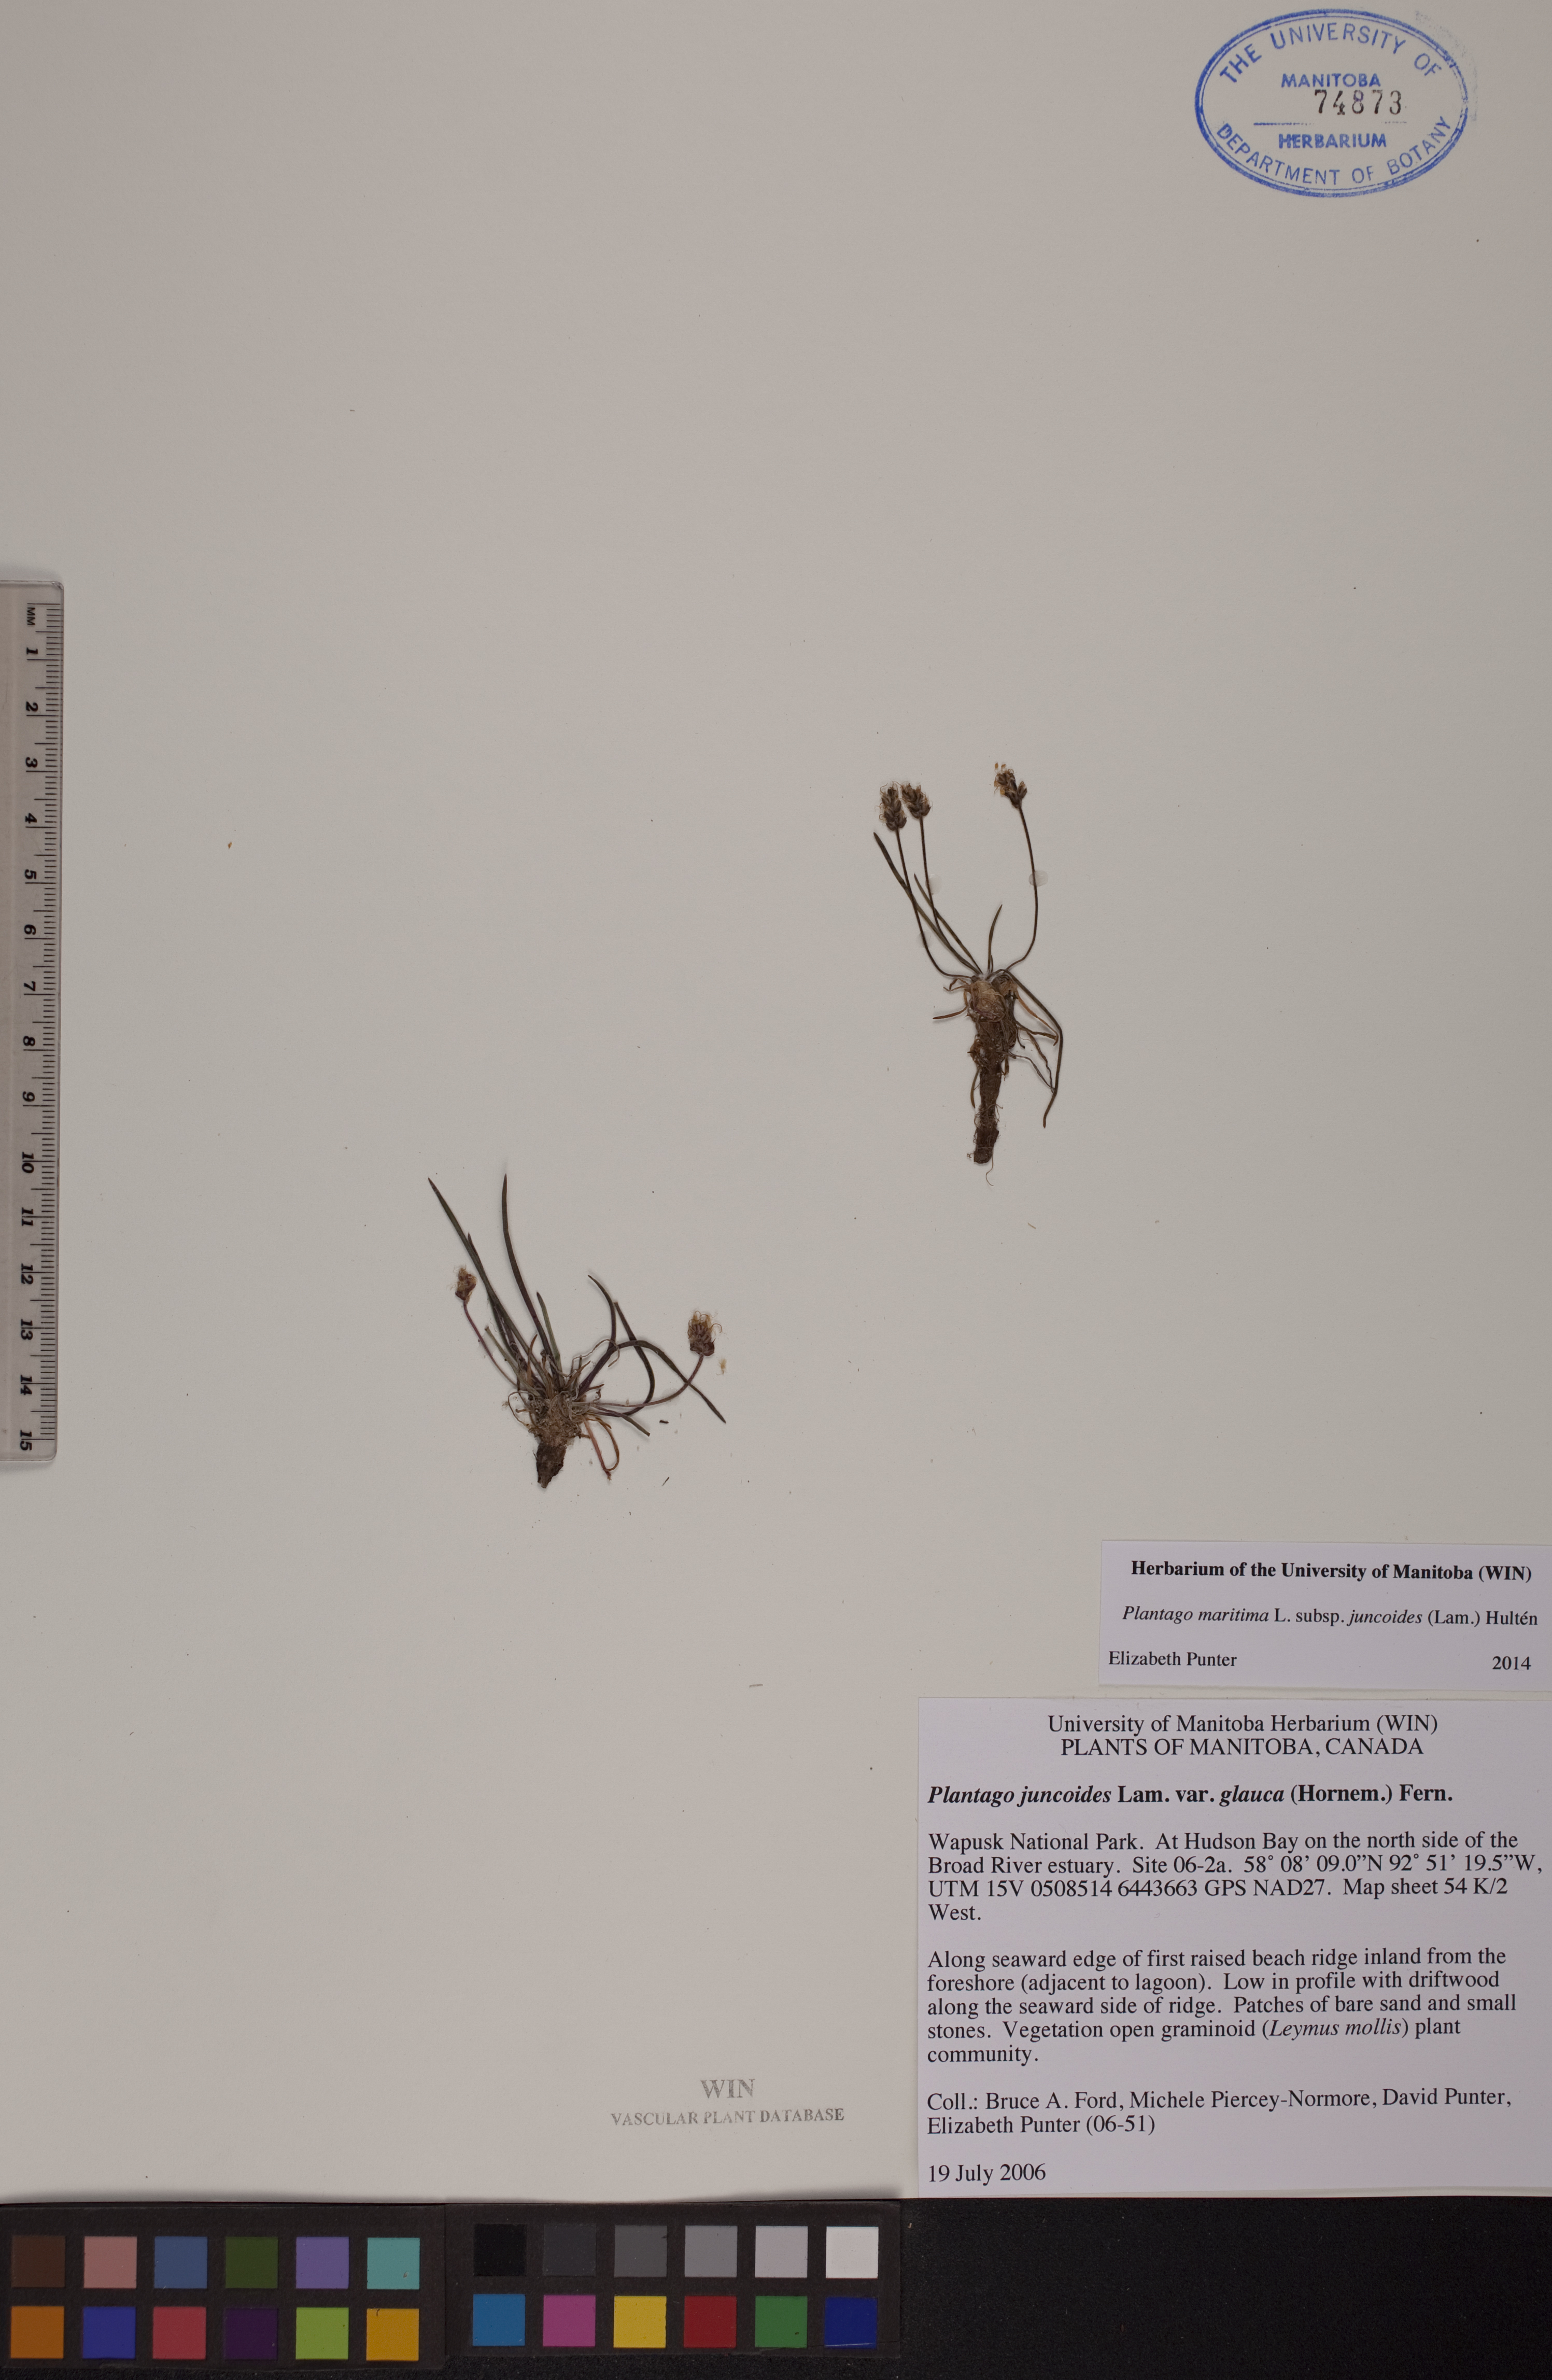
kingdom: Plantae
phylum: Tracheophyta
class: Magnoliopsida
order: Lamiales
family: Plantaginaceae
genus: Plantago
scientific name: Plantago maritima
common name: Sea plantain
